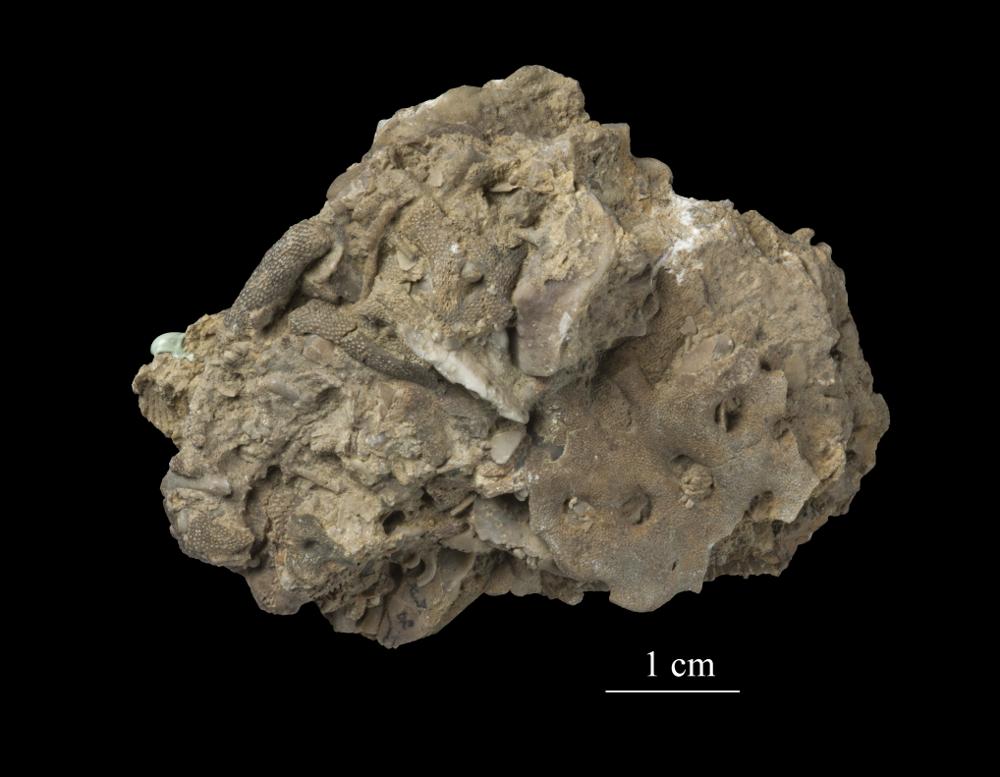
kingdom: Animalia
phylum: Bryozoa
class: Stenolaemata
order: Trepostomatida
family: Monticuliporidae
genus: Homotrypa
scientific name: Homotrypa cribrosa
